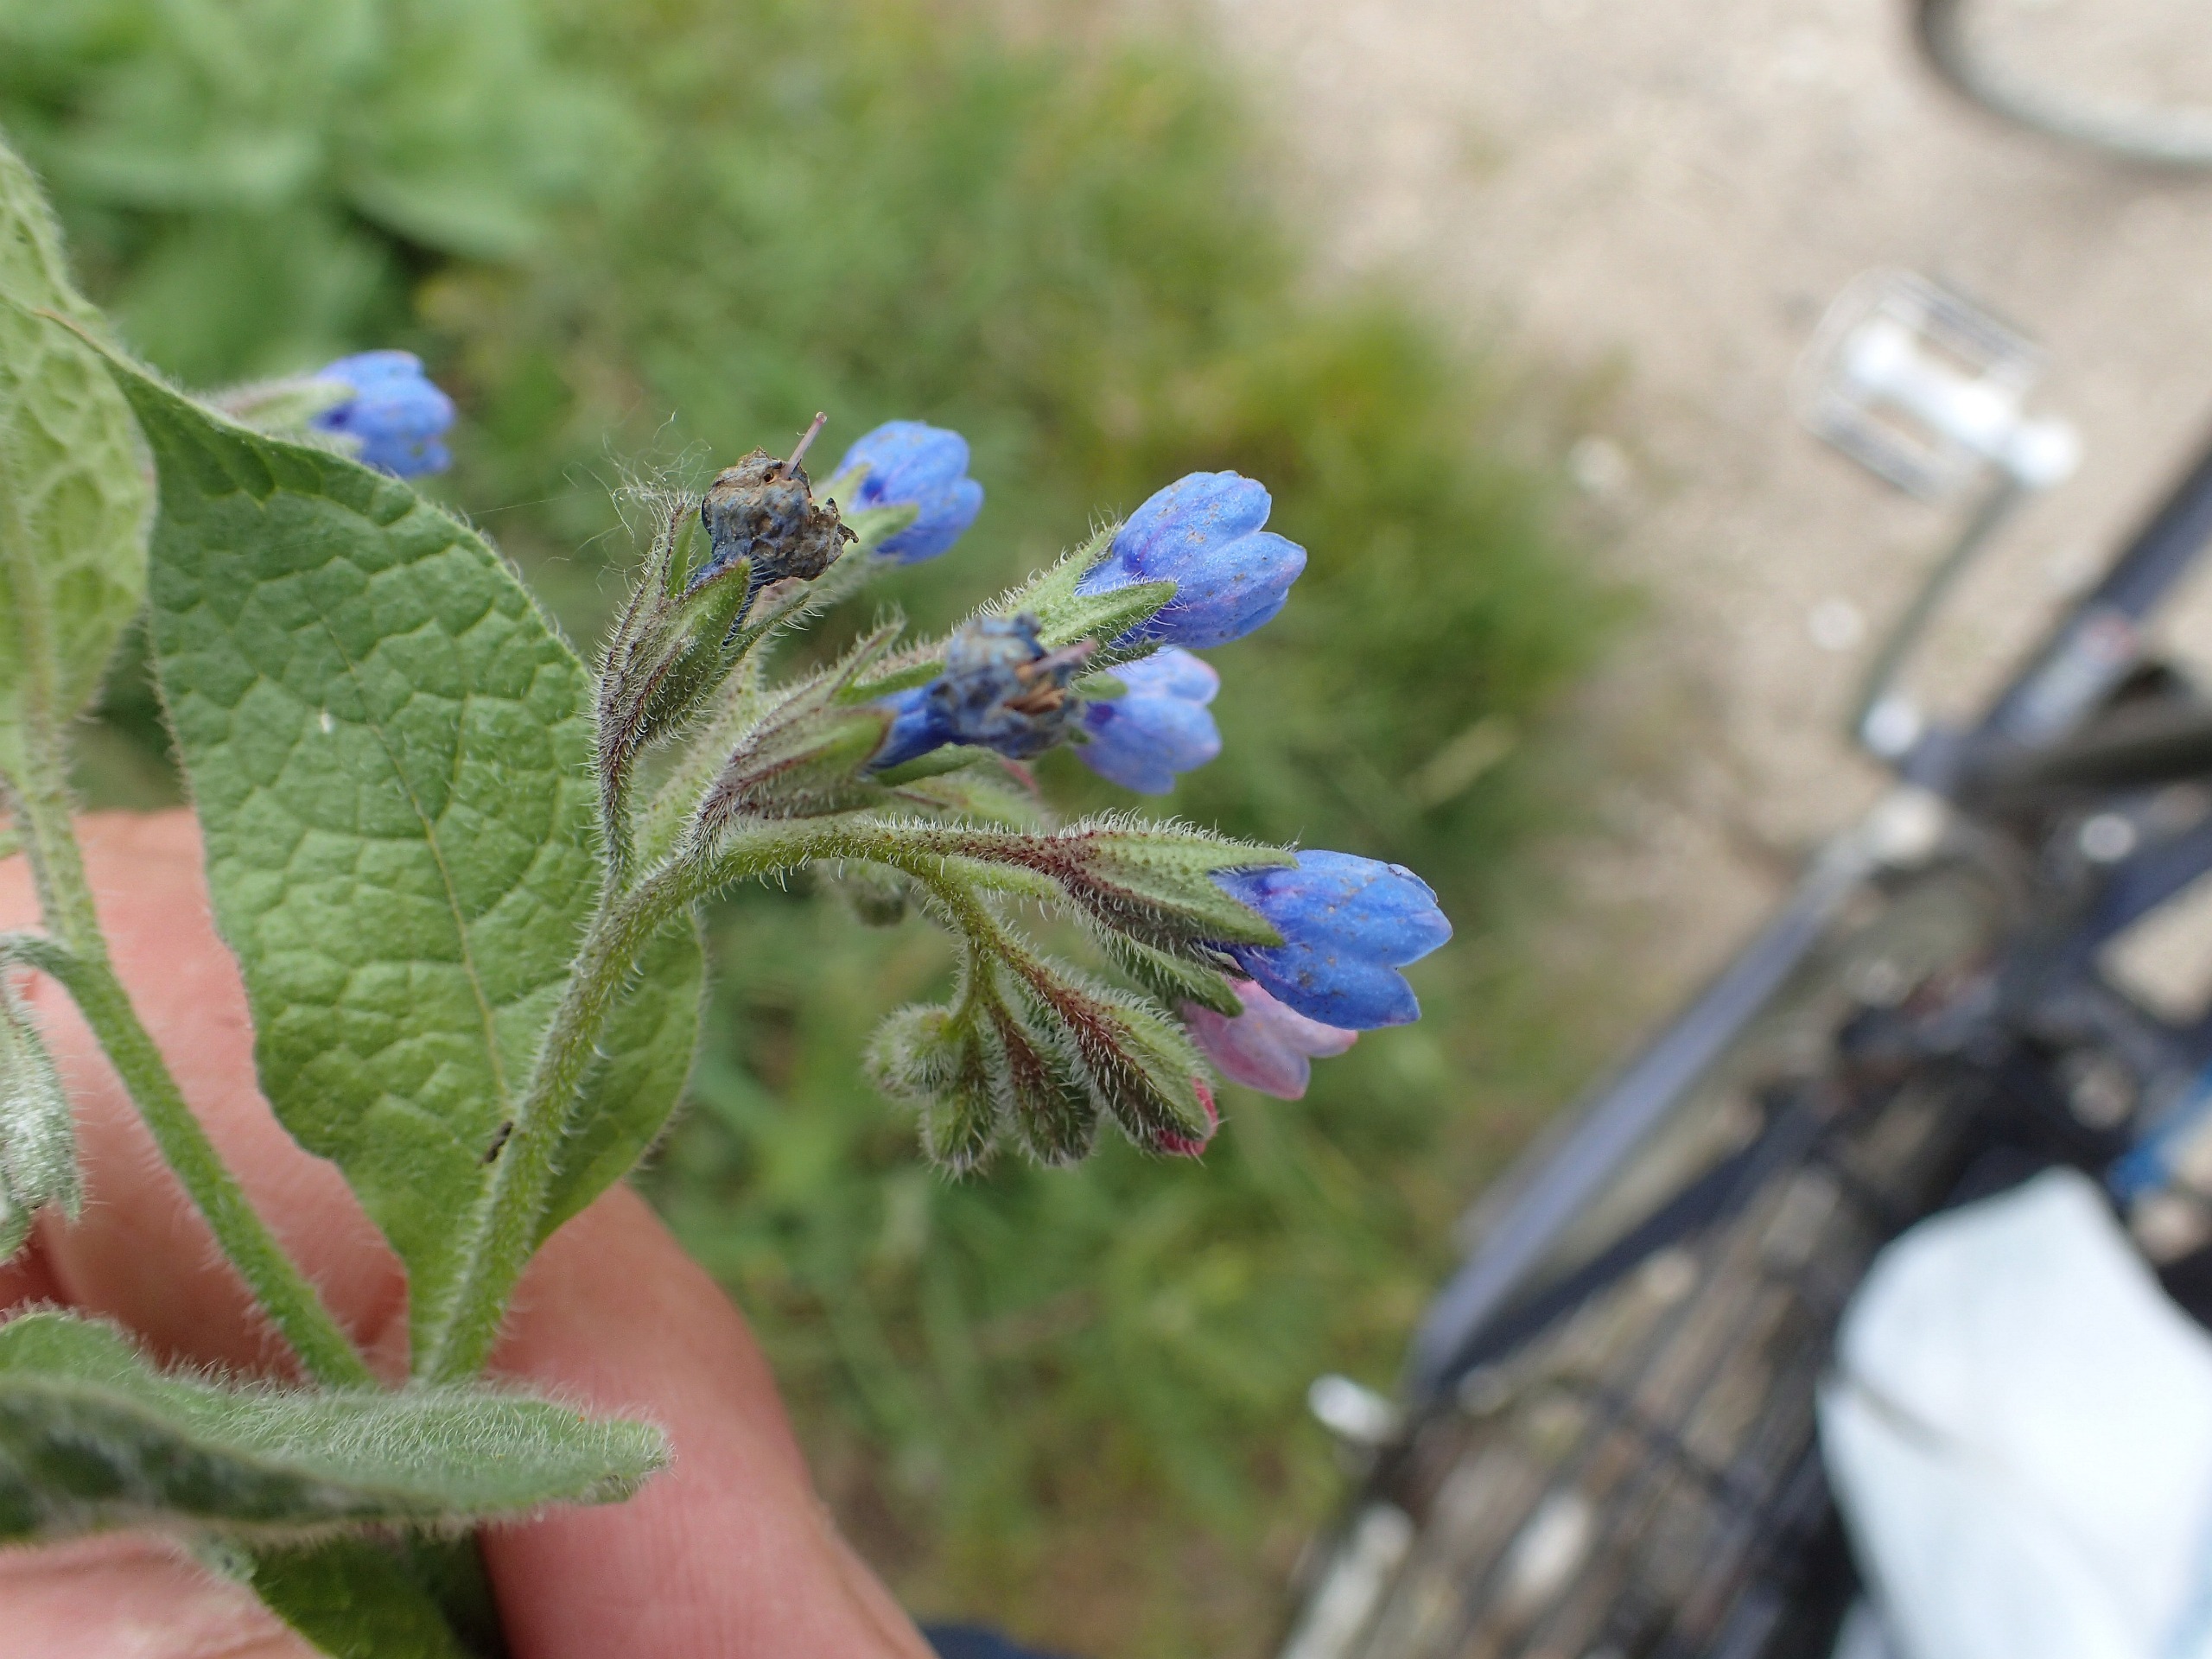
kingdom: Plantae
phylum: Tracheophyta
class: Magnoliopsida
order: Boraginales
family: Boraginaceae
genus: Symphytum
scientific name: Symphytum caucasicum
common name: Kaukasisk kulsukker
